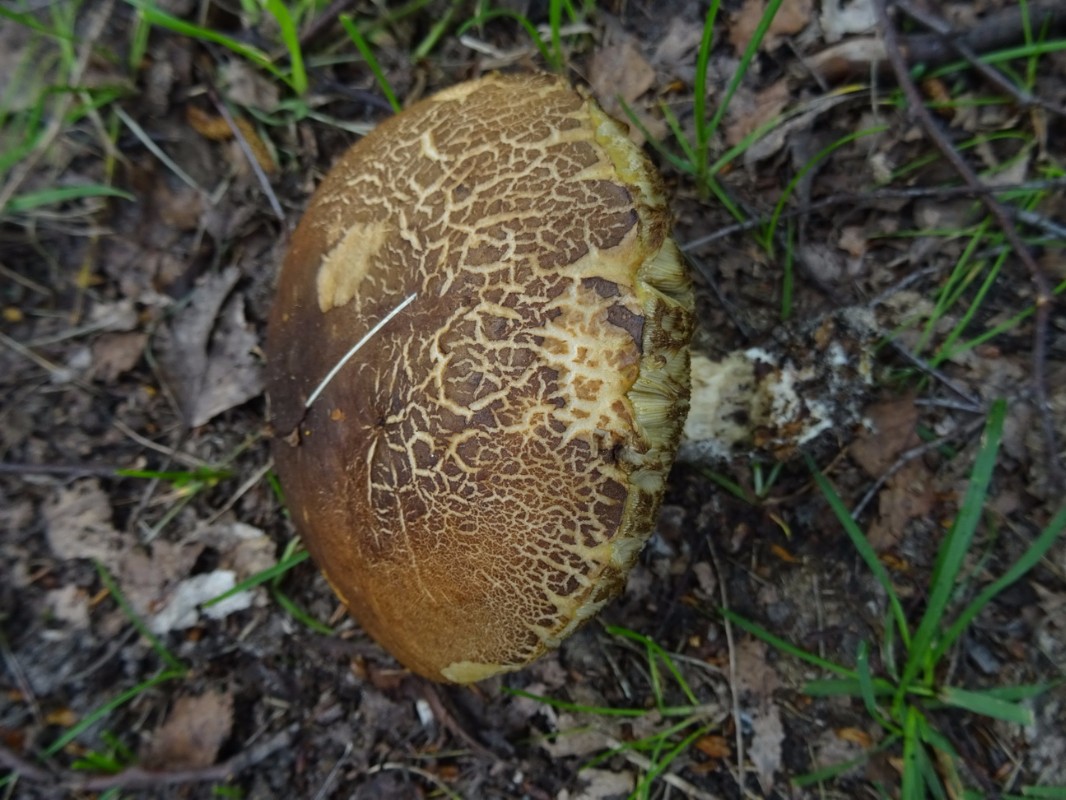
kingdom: Fungi
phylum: Basidiomycota
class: Agaricomycetes
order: Boletales
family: Boletaceae
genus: Leccinum
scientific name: Leccinum scabrum
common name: brun skælrørhat
